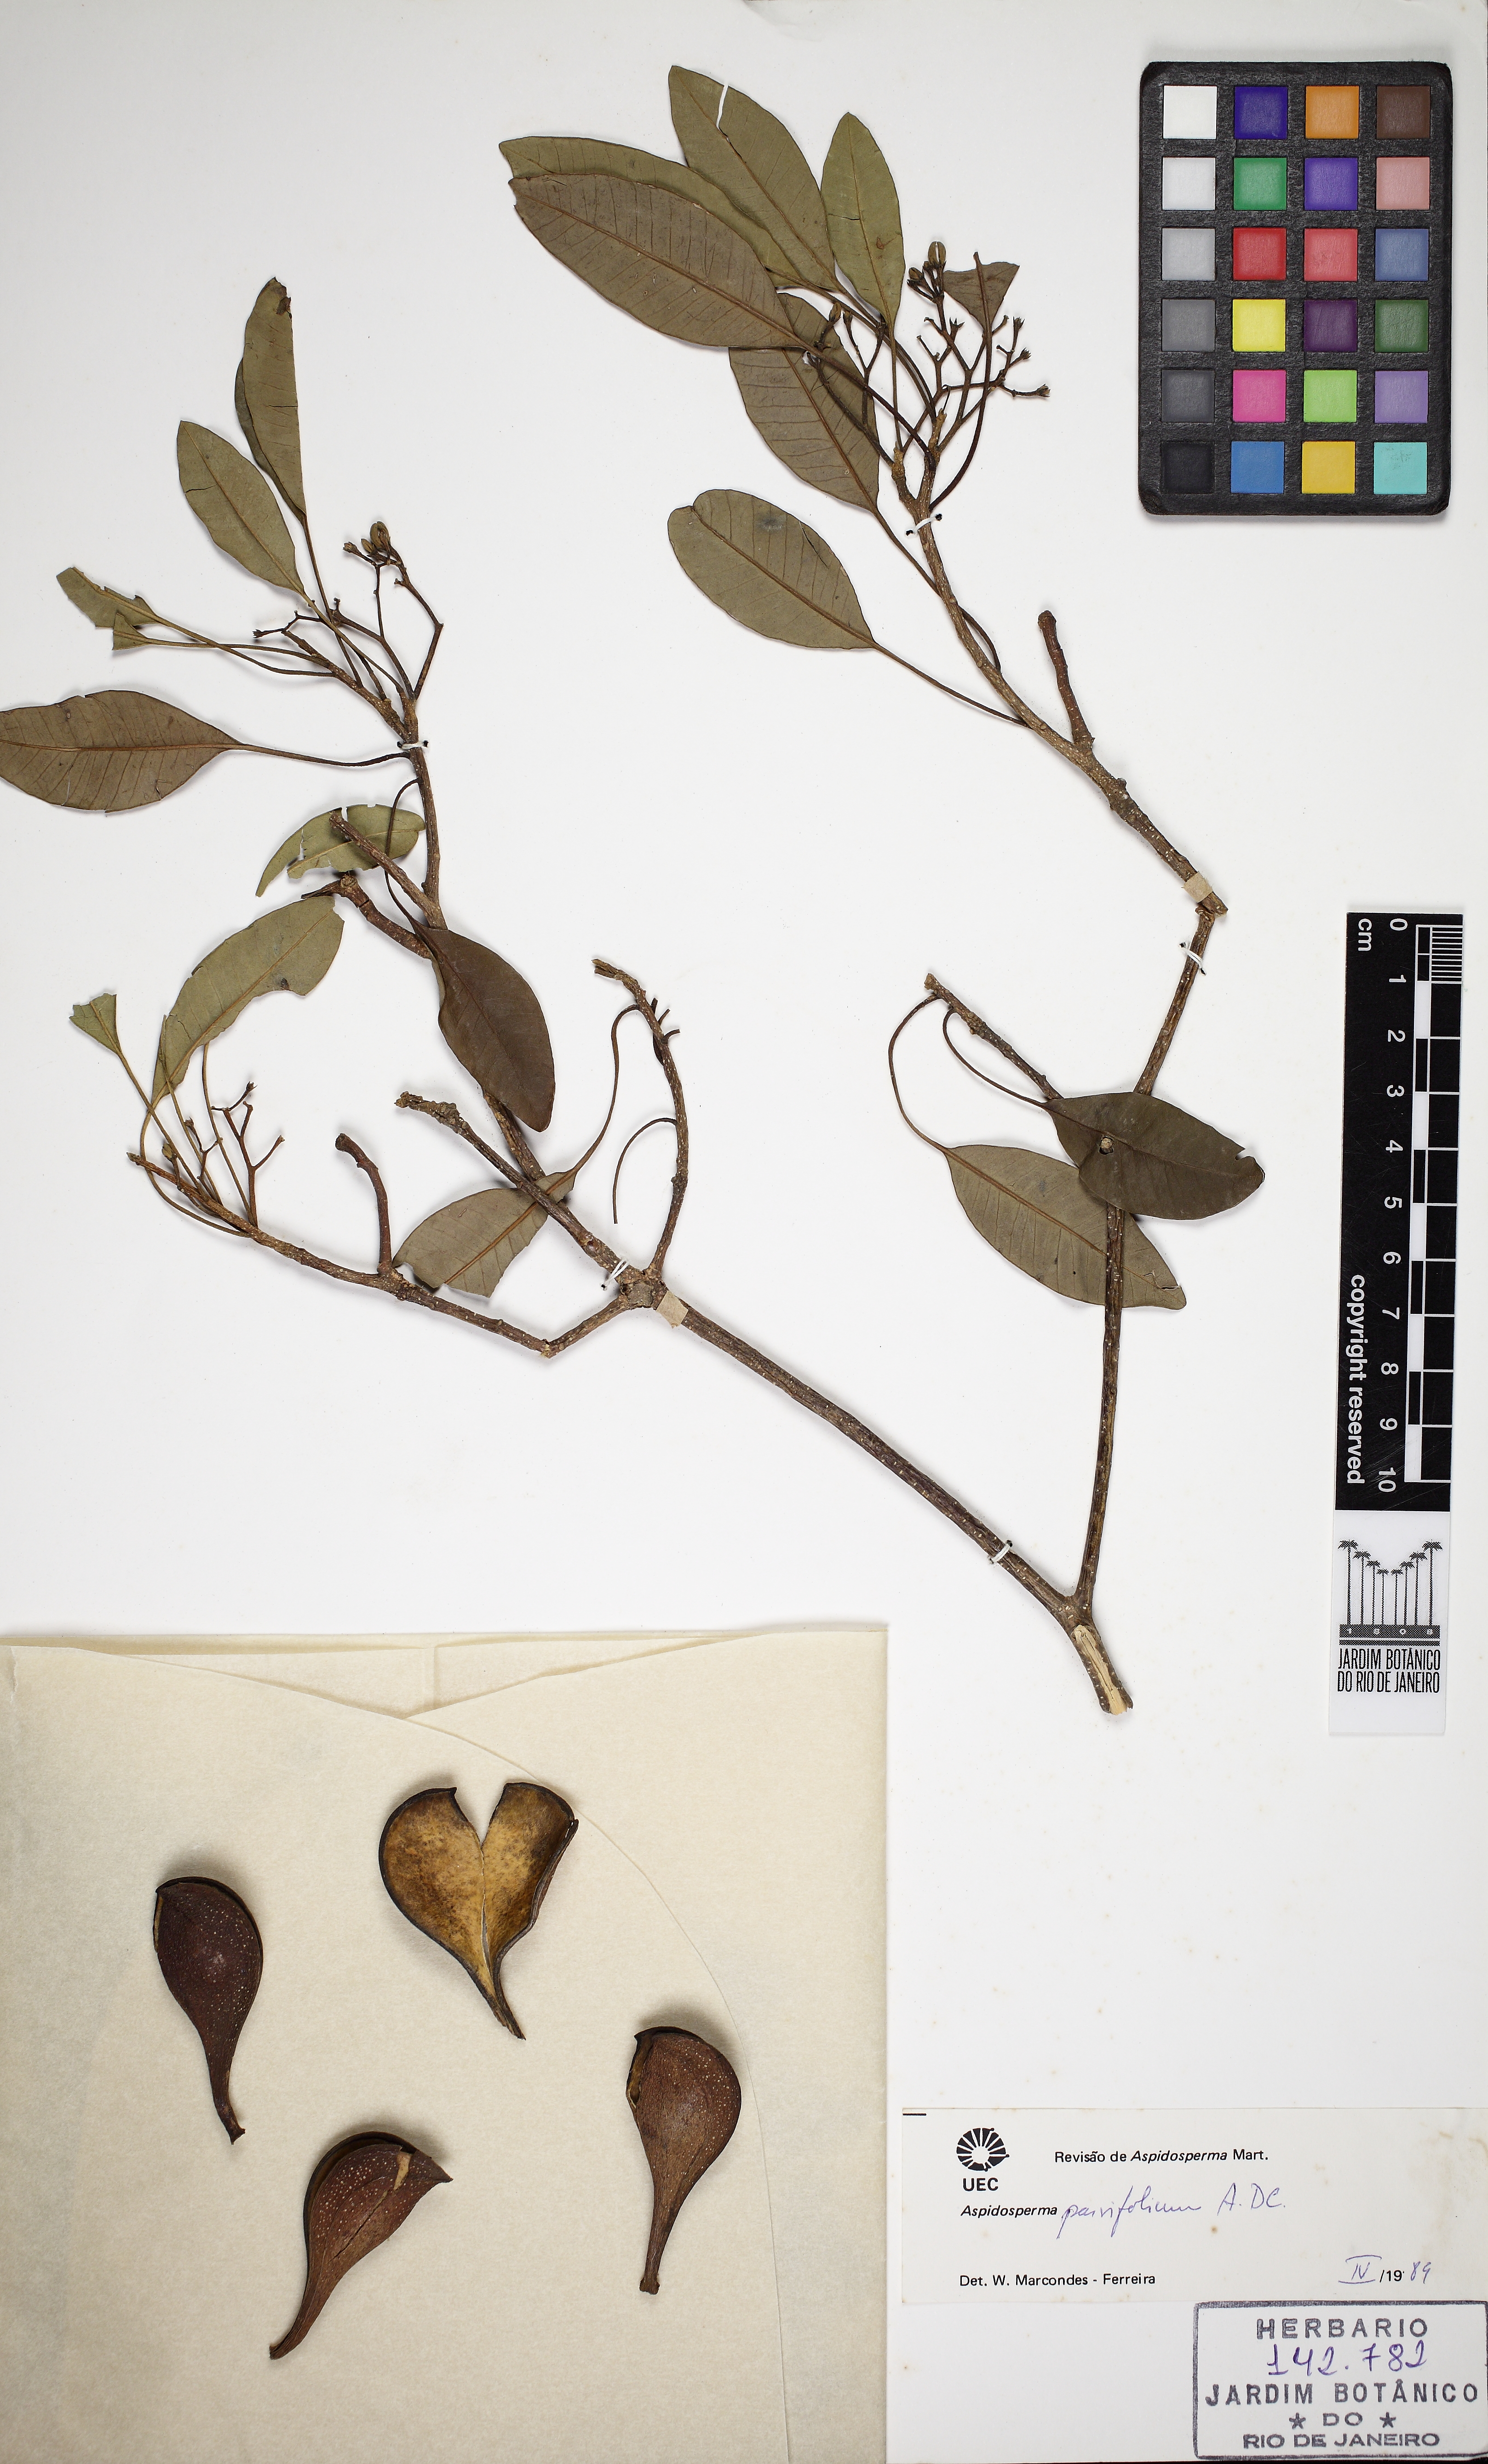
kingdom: Plantae
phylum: Tracheophyta
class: Magnoliopsida
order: Gentianales
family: Apocynaceae
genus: Aspidosperma
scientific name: Aspidosperma australe
